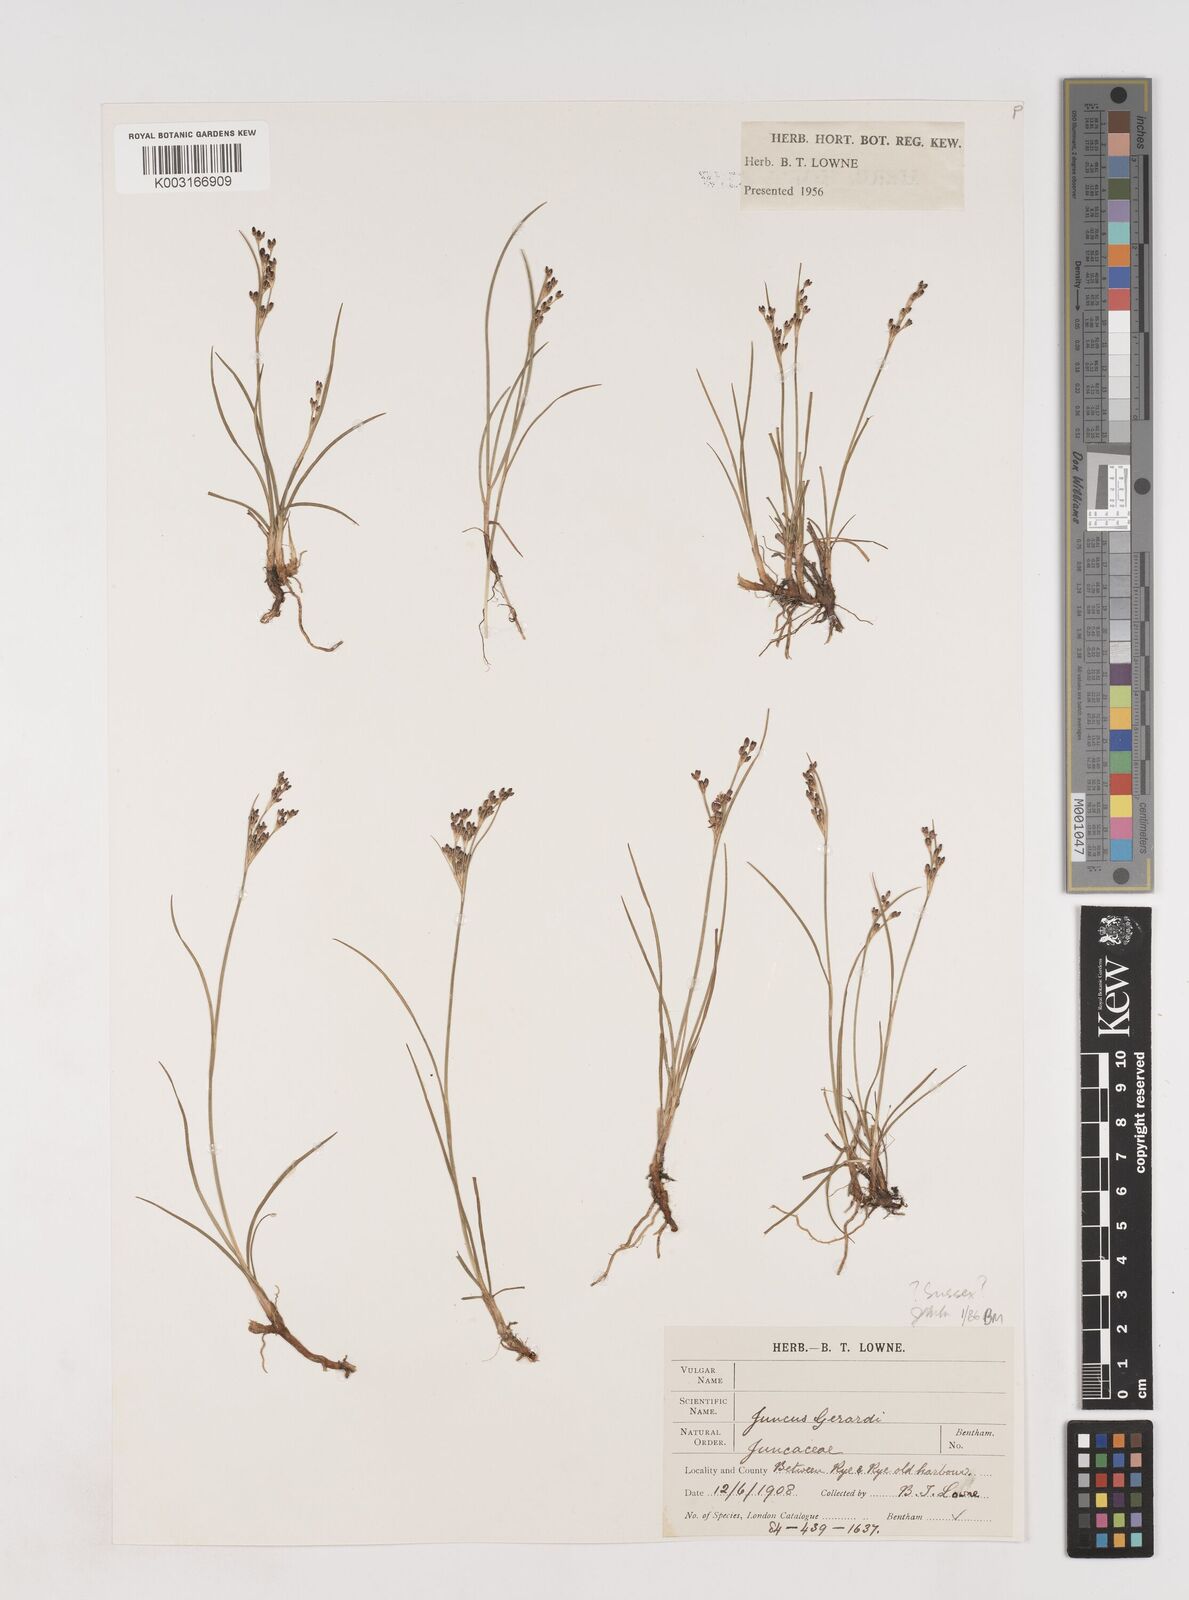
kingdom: Plantae
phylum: Tracheophyta
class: Liliopsida
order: Poales
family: Juncaceae
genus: Juncus
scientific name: Juncus gerardi
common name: Saltmarsh rush
